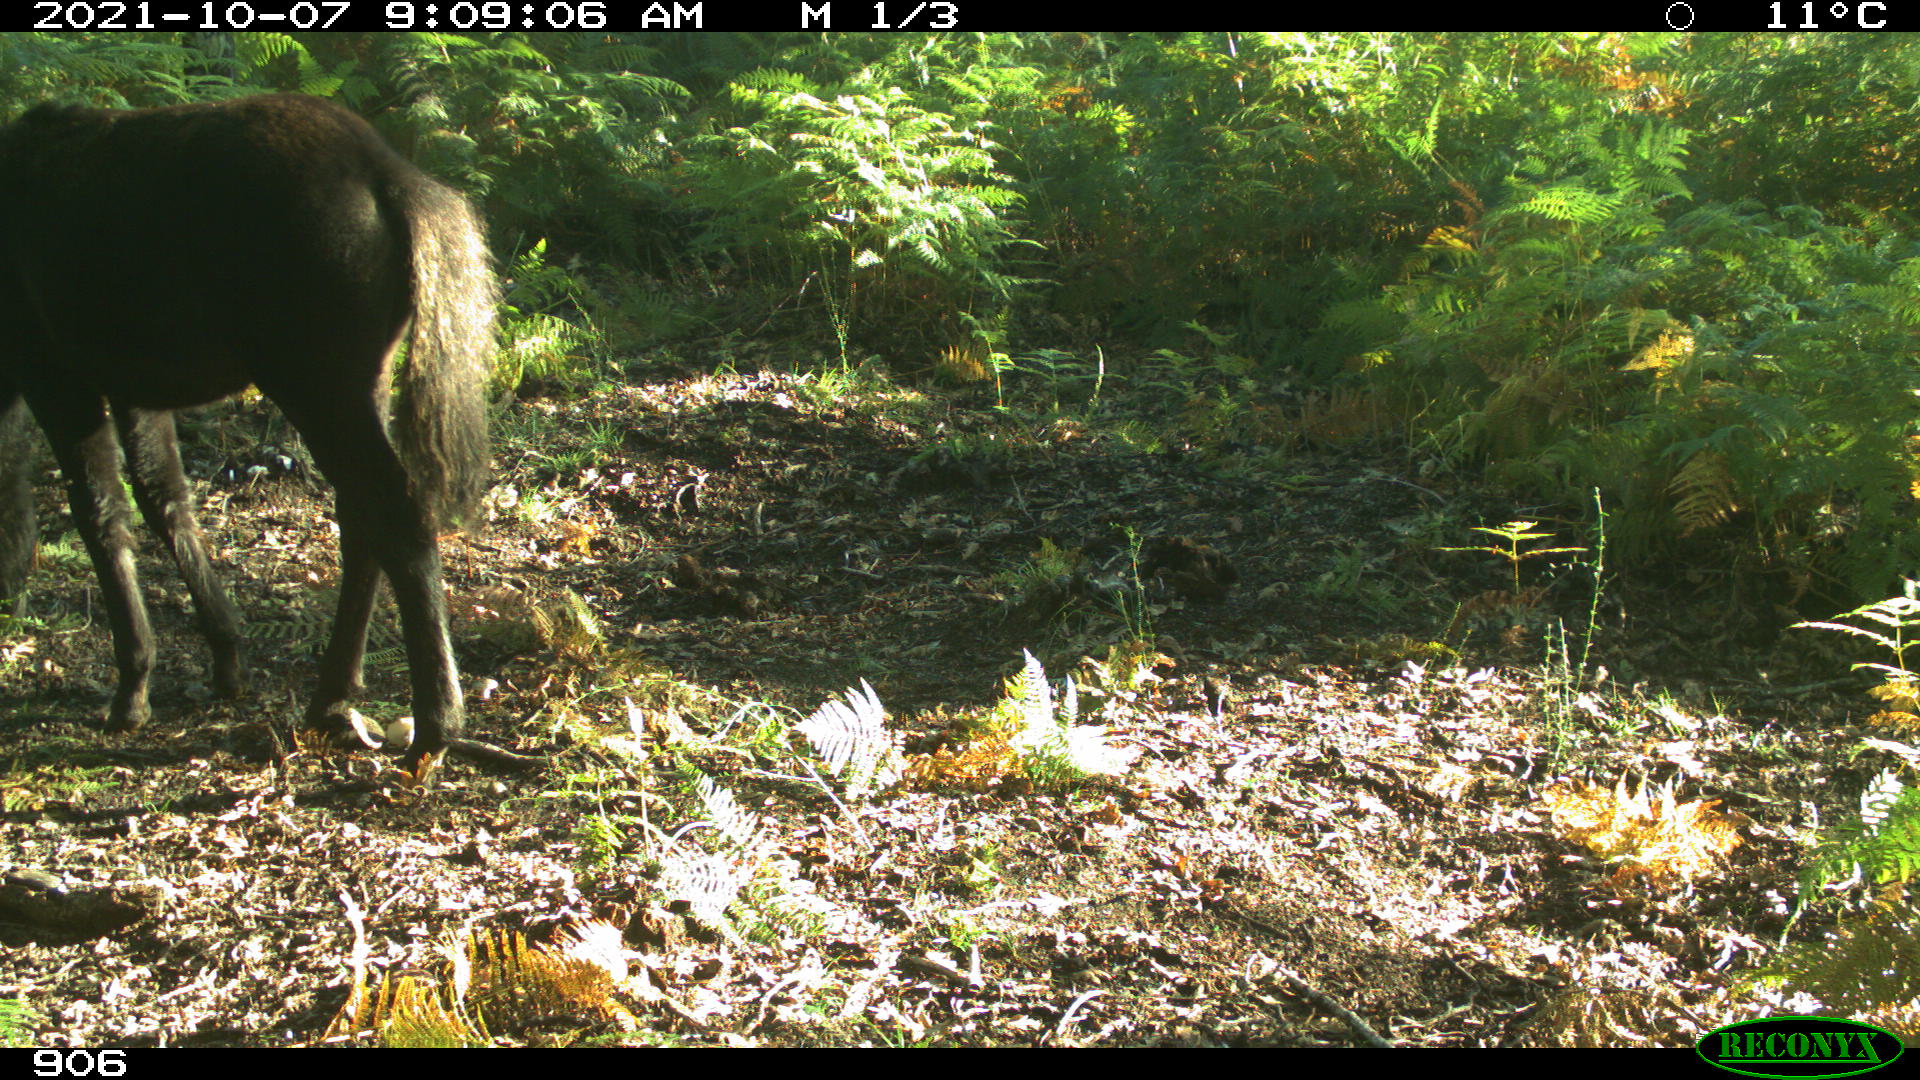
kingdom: Animalia
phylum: Chordata
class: Mammalia
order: Perissodactyla
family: Equidae
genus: Equus
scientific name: Equus caballus
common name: Horse
